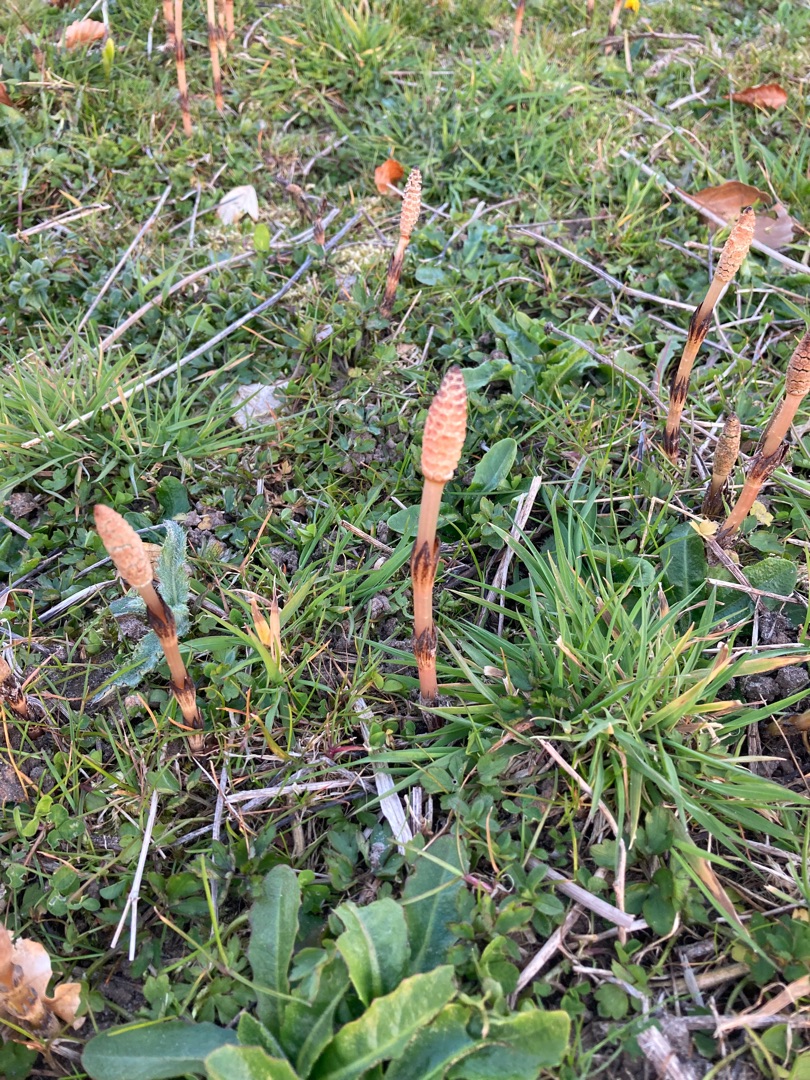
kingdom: Plantae
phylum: Tracheophyta
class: Polypodiopsida
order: Equisetales
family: Equisetaceae
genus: Equisetum
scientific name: Equisetum arvense
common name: Ager-padderok
